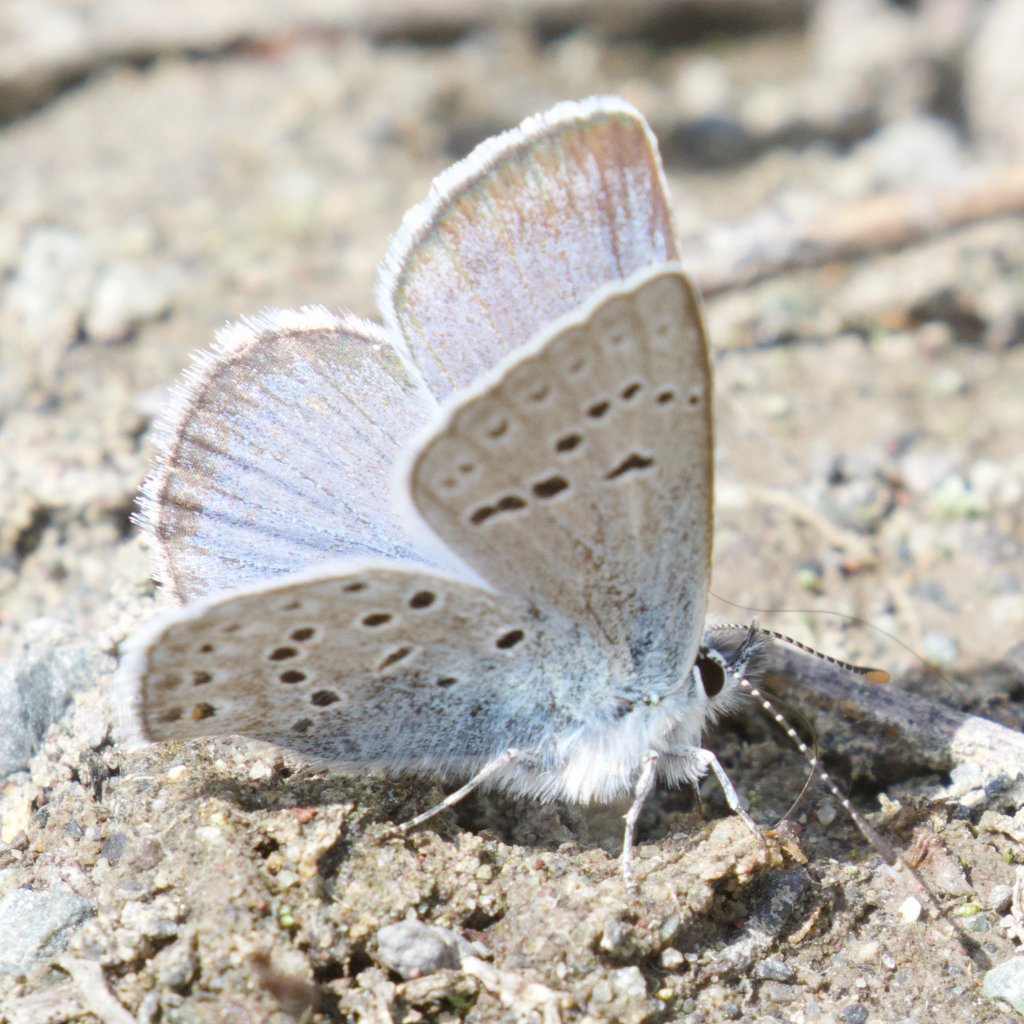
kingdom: Animalia
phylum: Arthropoda
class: Insecta
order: Lepidoptera
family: Lycaenidae
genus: Plebejus
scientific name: Plebejus saepiolus
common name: Greenish Blue
